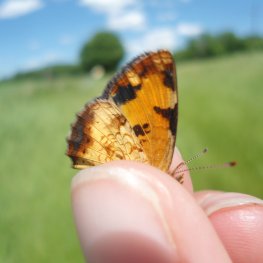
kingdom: Animalia
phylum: Arthropoda
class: Insecta
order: Lepidoptera
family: Nymphalidae
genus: Phyciodes
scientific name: Phyciodes tharos
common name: Northern Crescent
